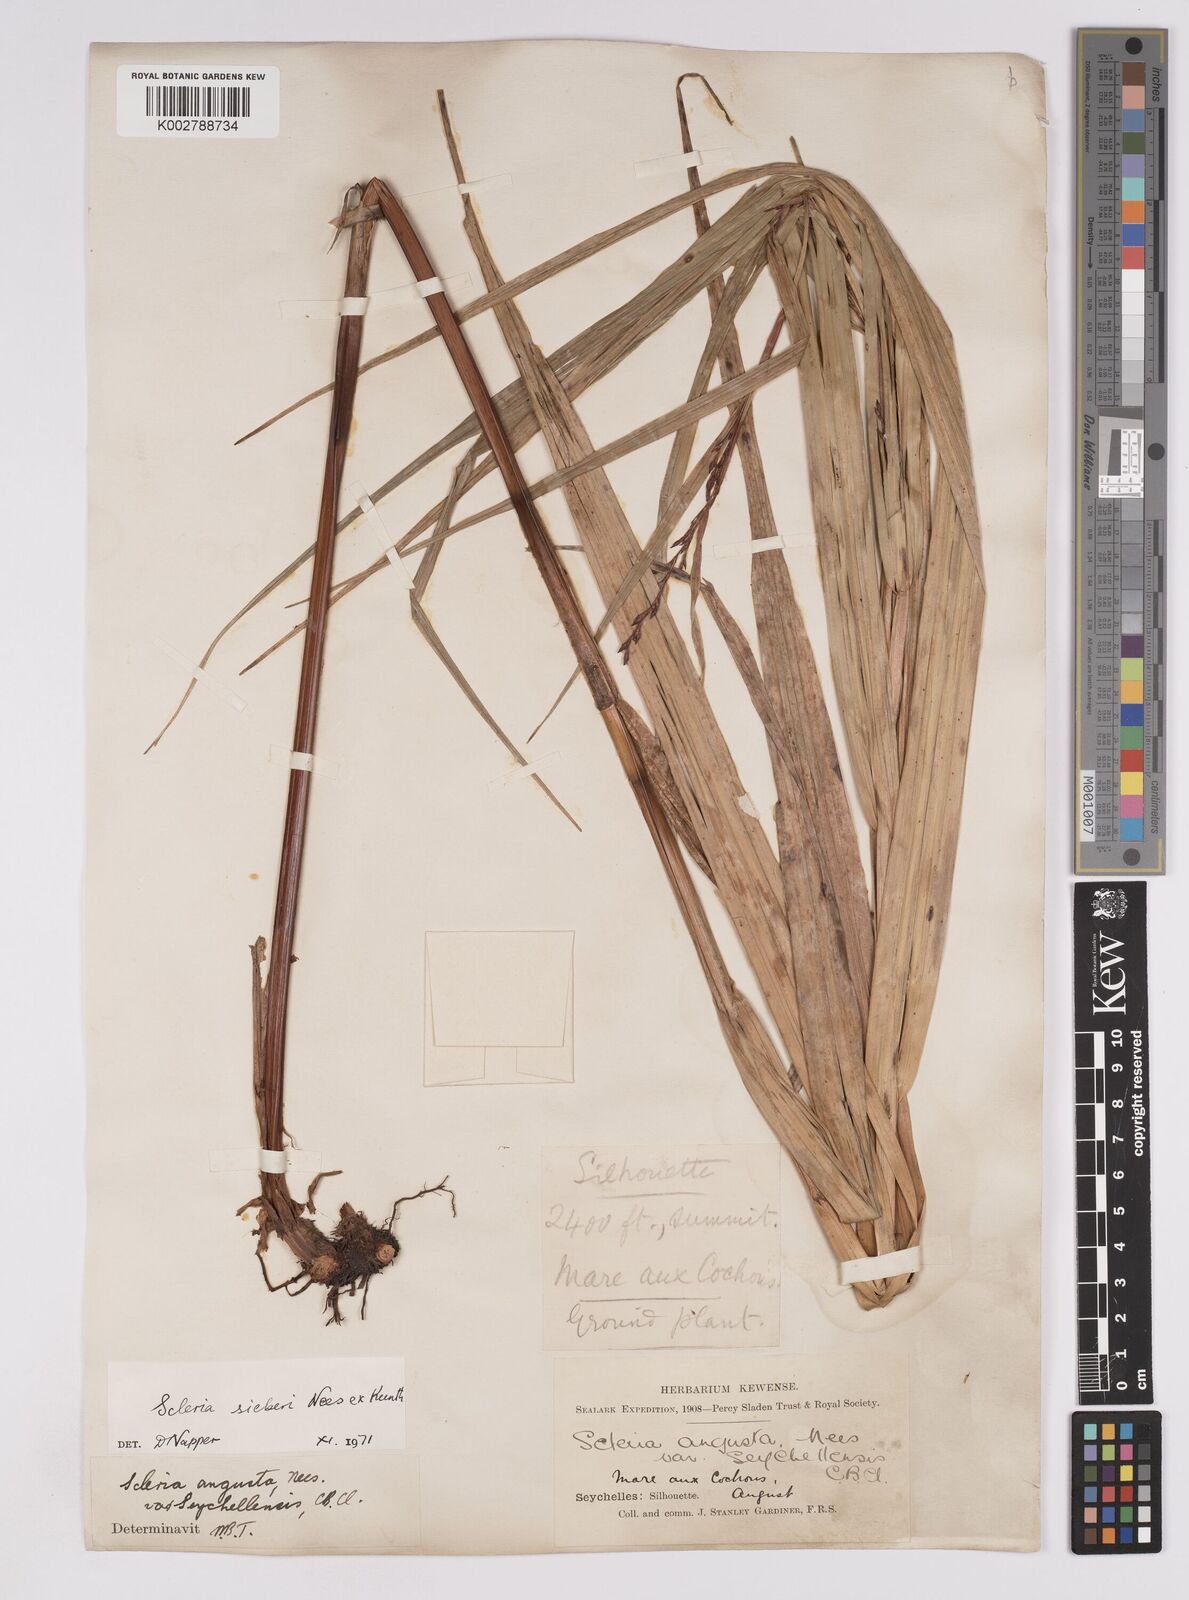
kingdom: Plantae
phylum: Tracheophyta
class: Liliopsida
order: Poales
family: Cyperaceae
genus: Scleria
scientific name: Scleria gaertneri
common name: Cortadera blanca
